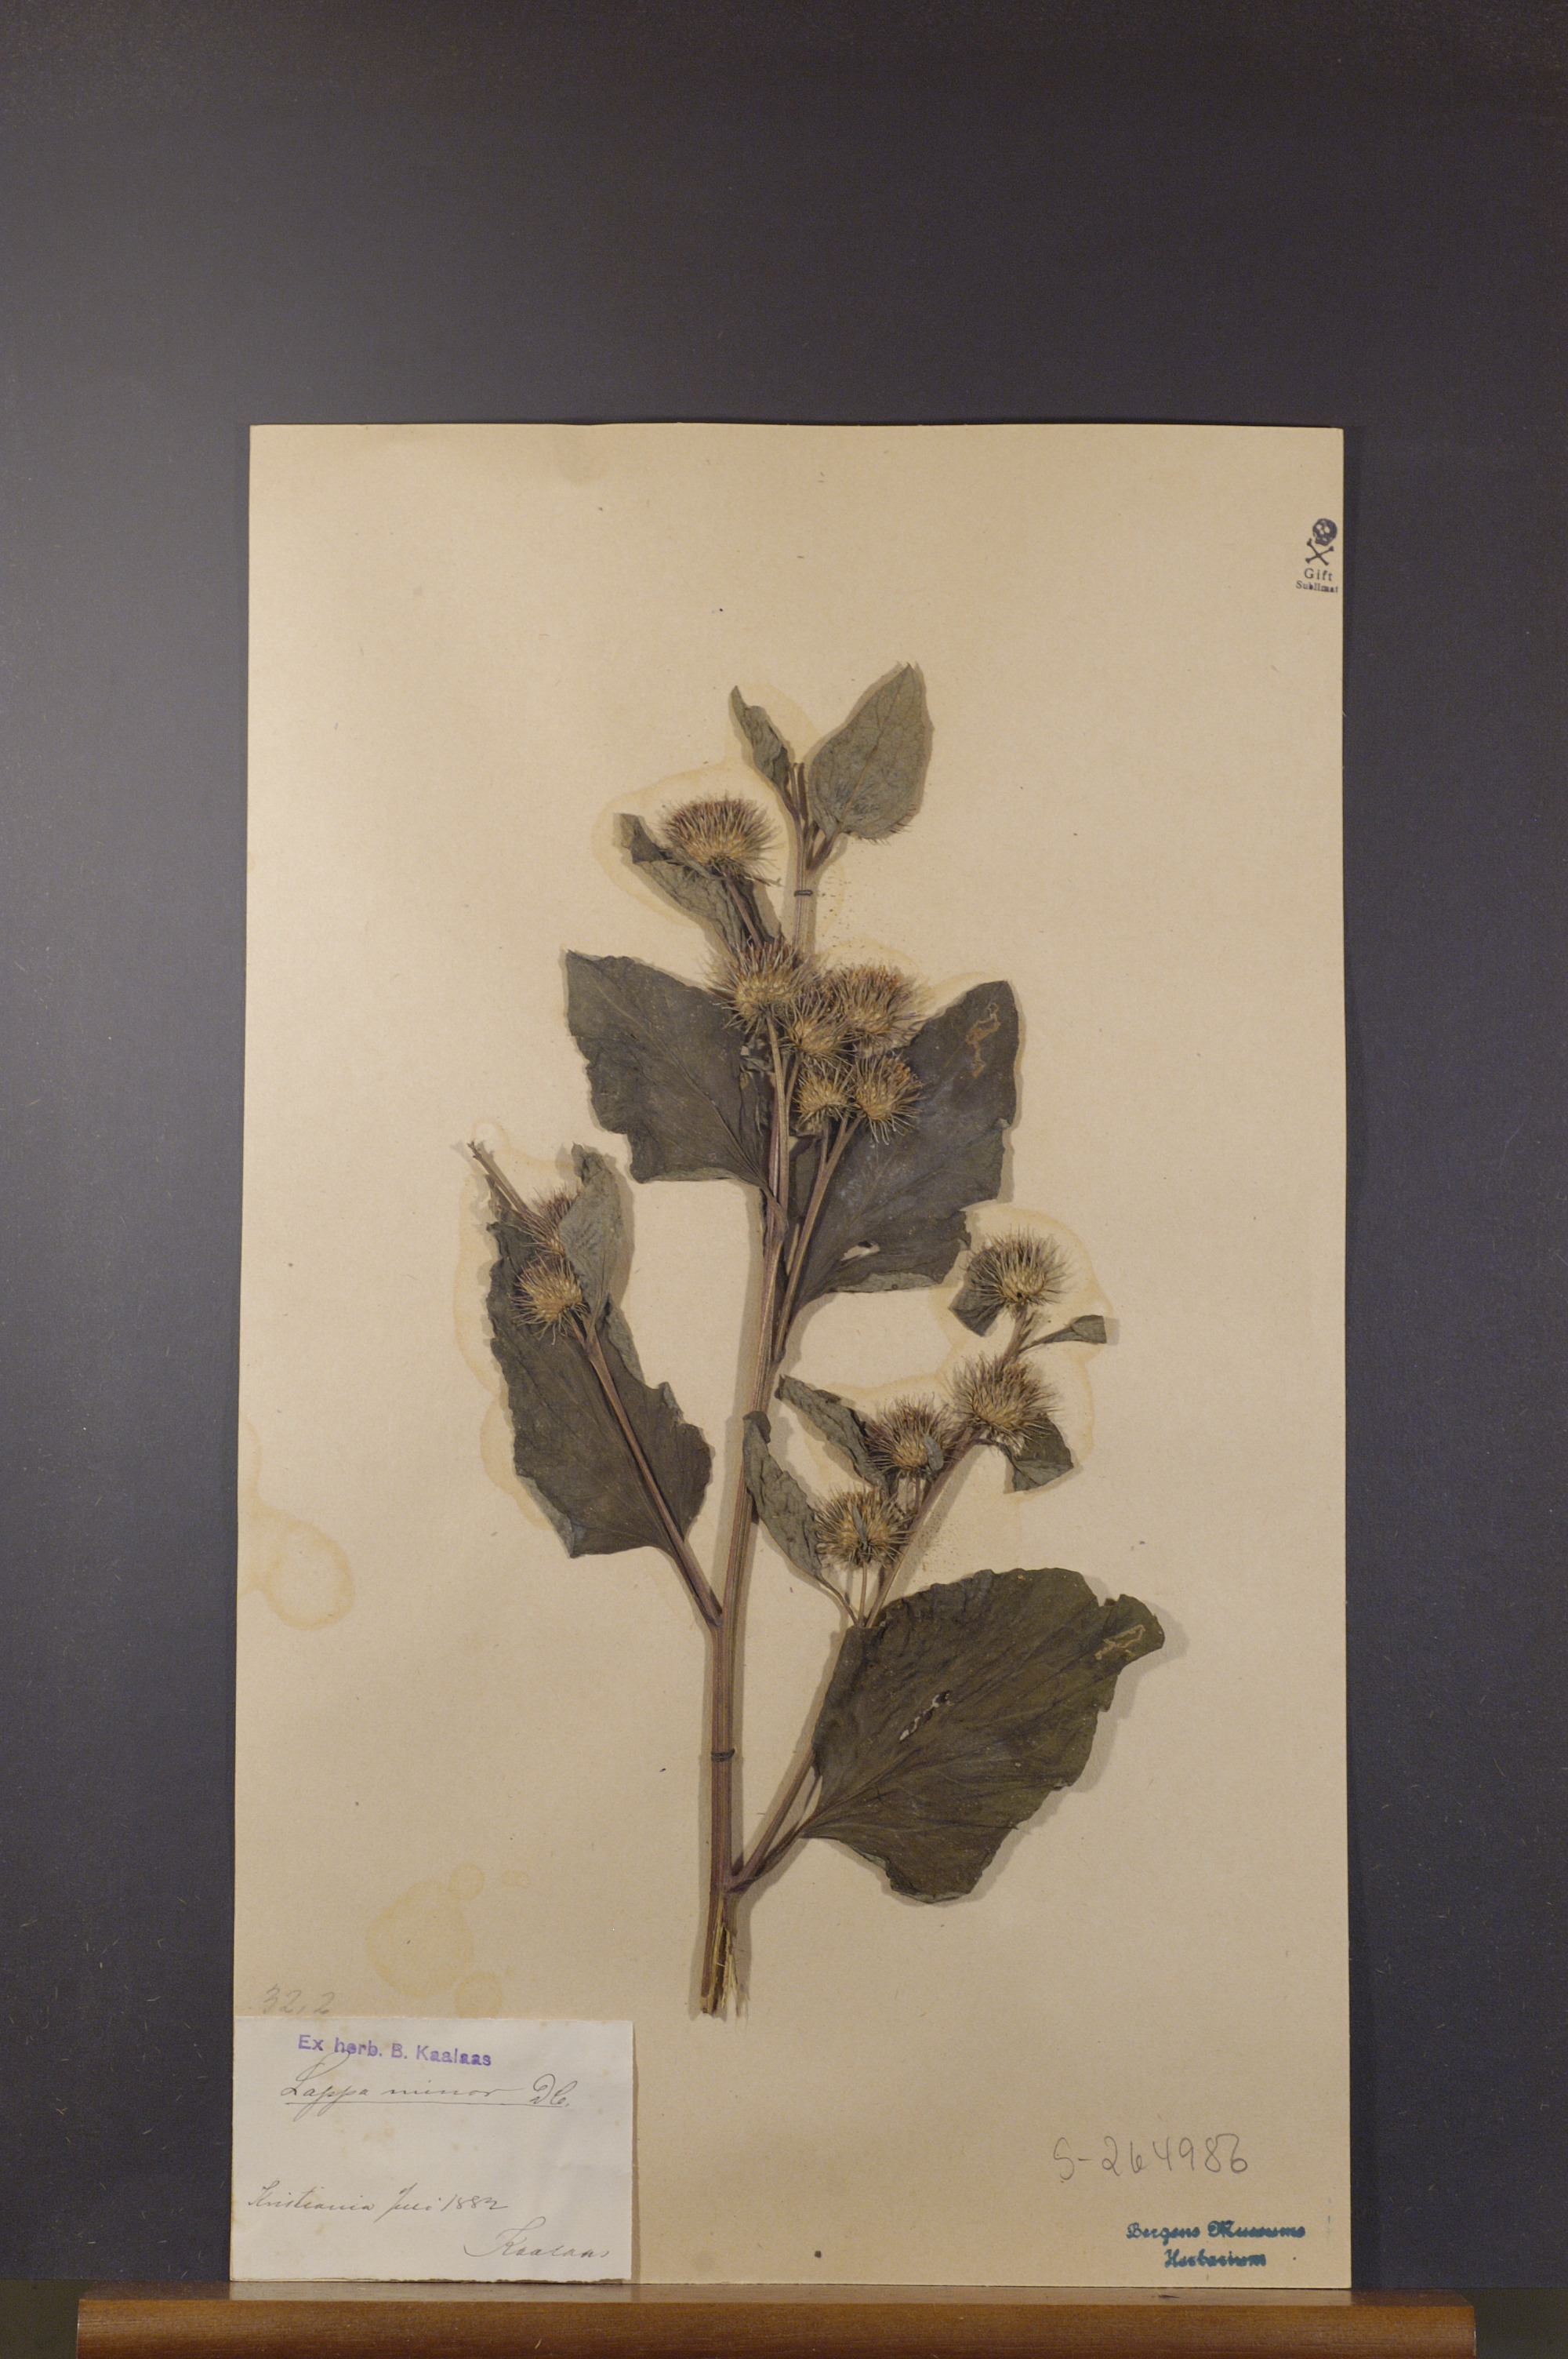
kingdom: Plantae
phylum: Tracheophyta
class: Magnoliopsida
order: Asterales
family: Asteraceae
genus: Arctium
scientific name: Arctium minus
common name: Lesser burdock
